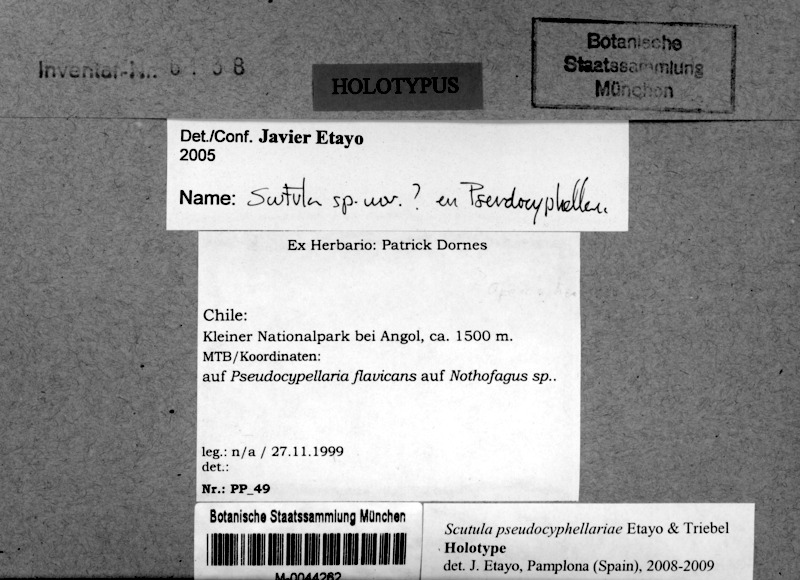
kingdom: Fungi
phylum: Ascomycota
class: Lecanoromycetes
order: Peltigerales
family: Lobariaceae
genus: Podostictina
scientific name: Podostictina flavicans
